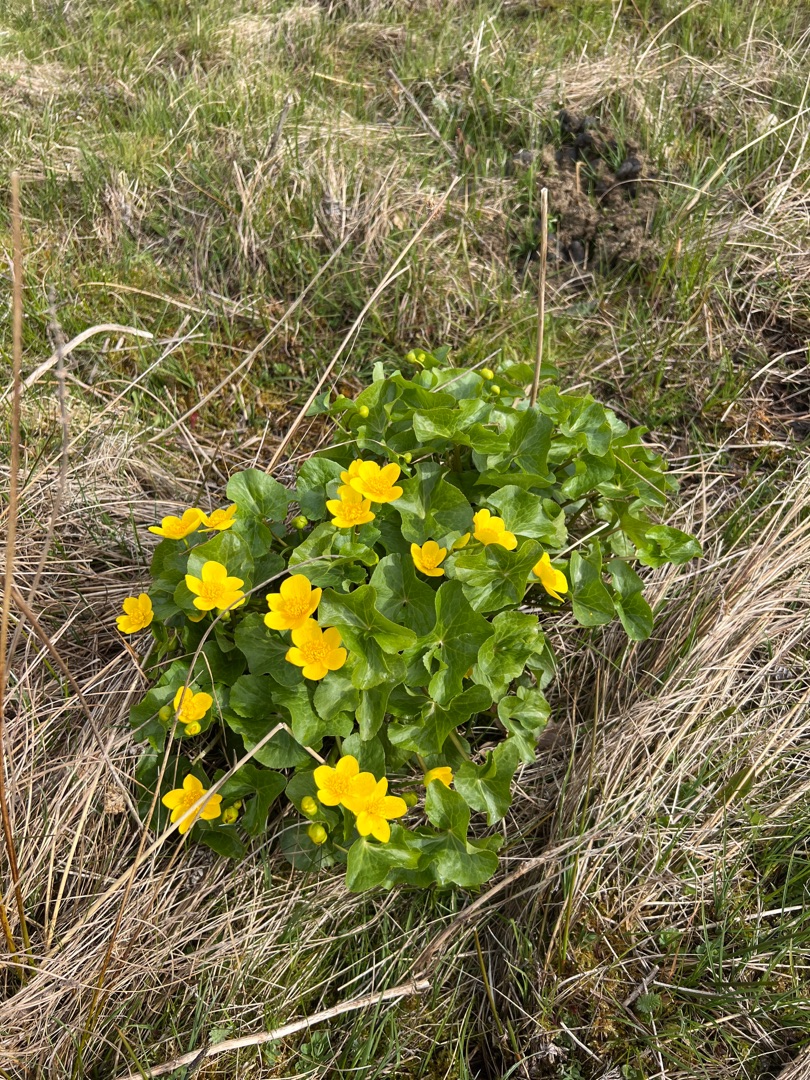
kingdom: Plantae
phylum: Tracheophyta
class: Magnoliopsida
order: Ranunculales
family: Ranunculaceae
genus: Caltha
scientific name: Caltha palustris
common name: Eng-kabbeleje
